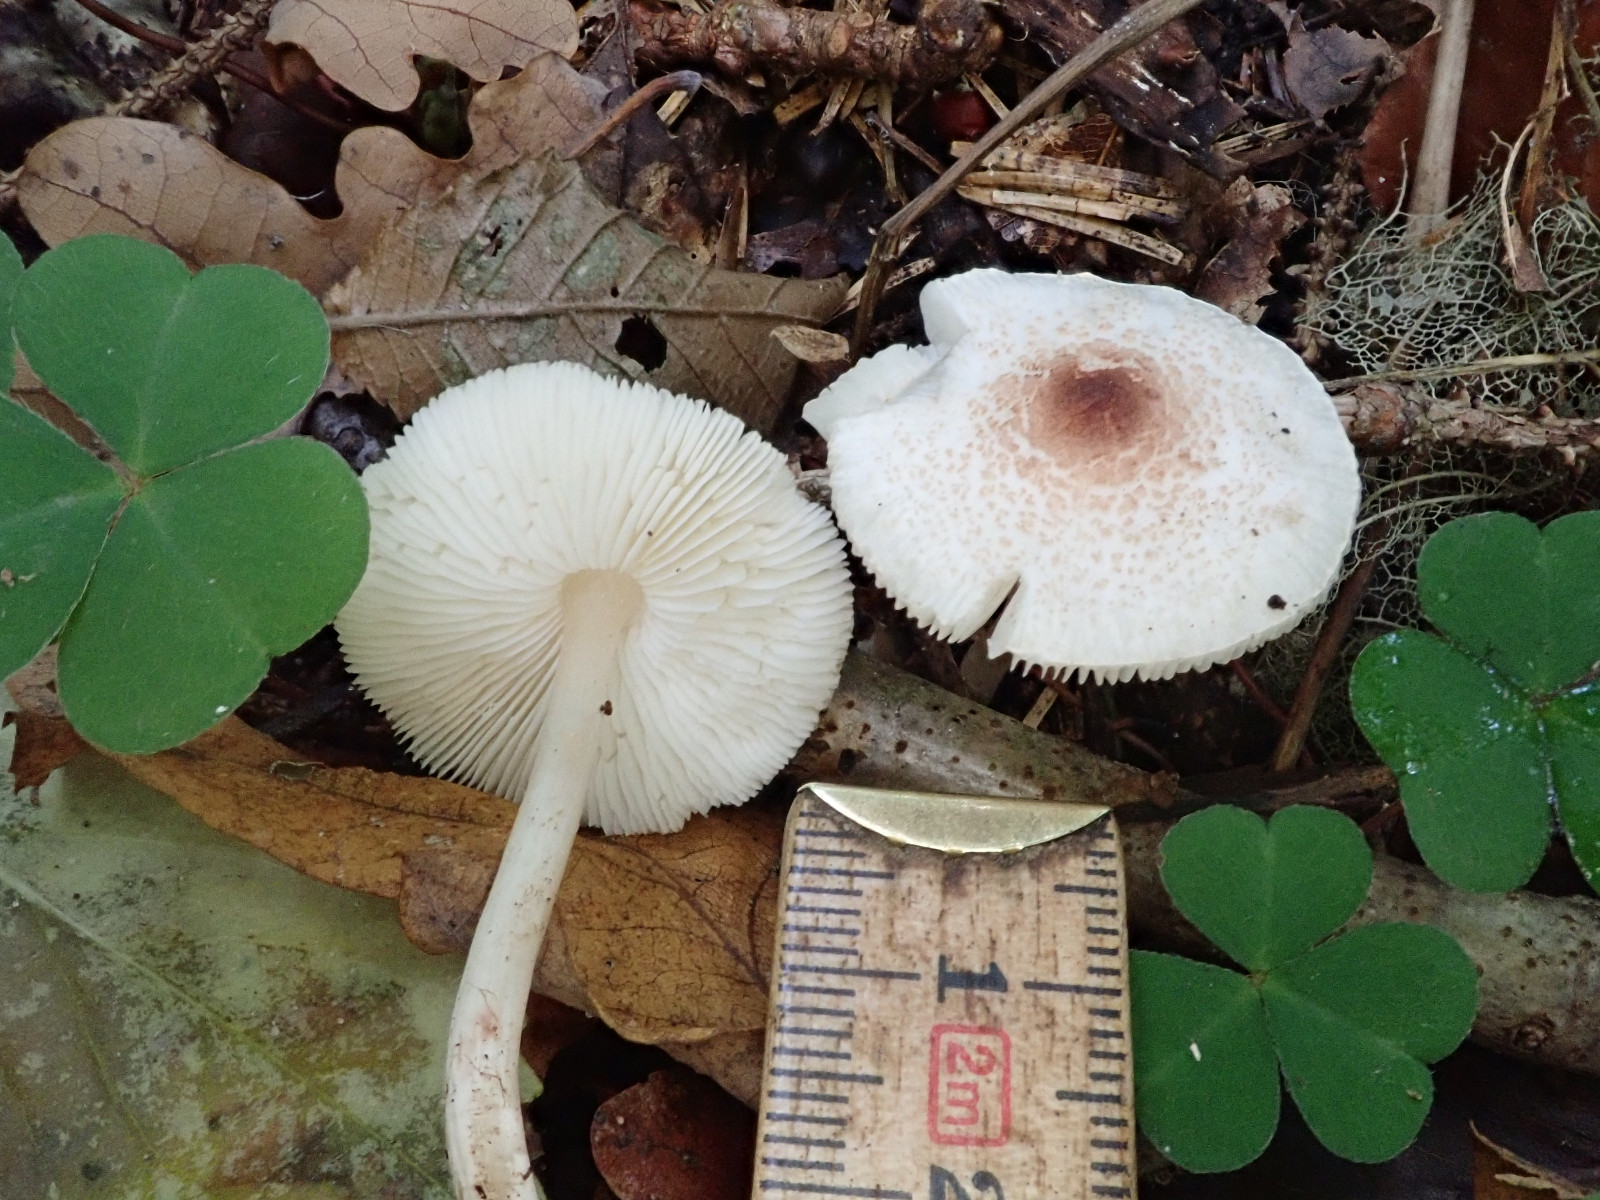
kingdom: Fungi
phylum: Basidiomycota
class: Agaricomycetes
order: Agaricales
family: Agaricaceae
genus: Lepiota
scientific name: Lepiota cristata
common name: stinkende parasolhat
